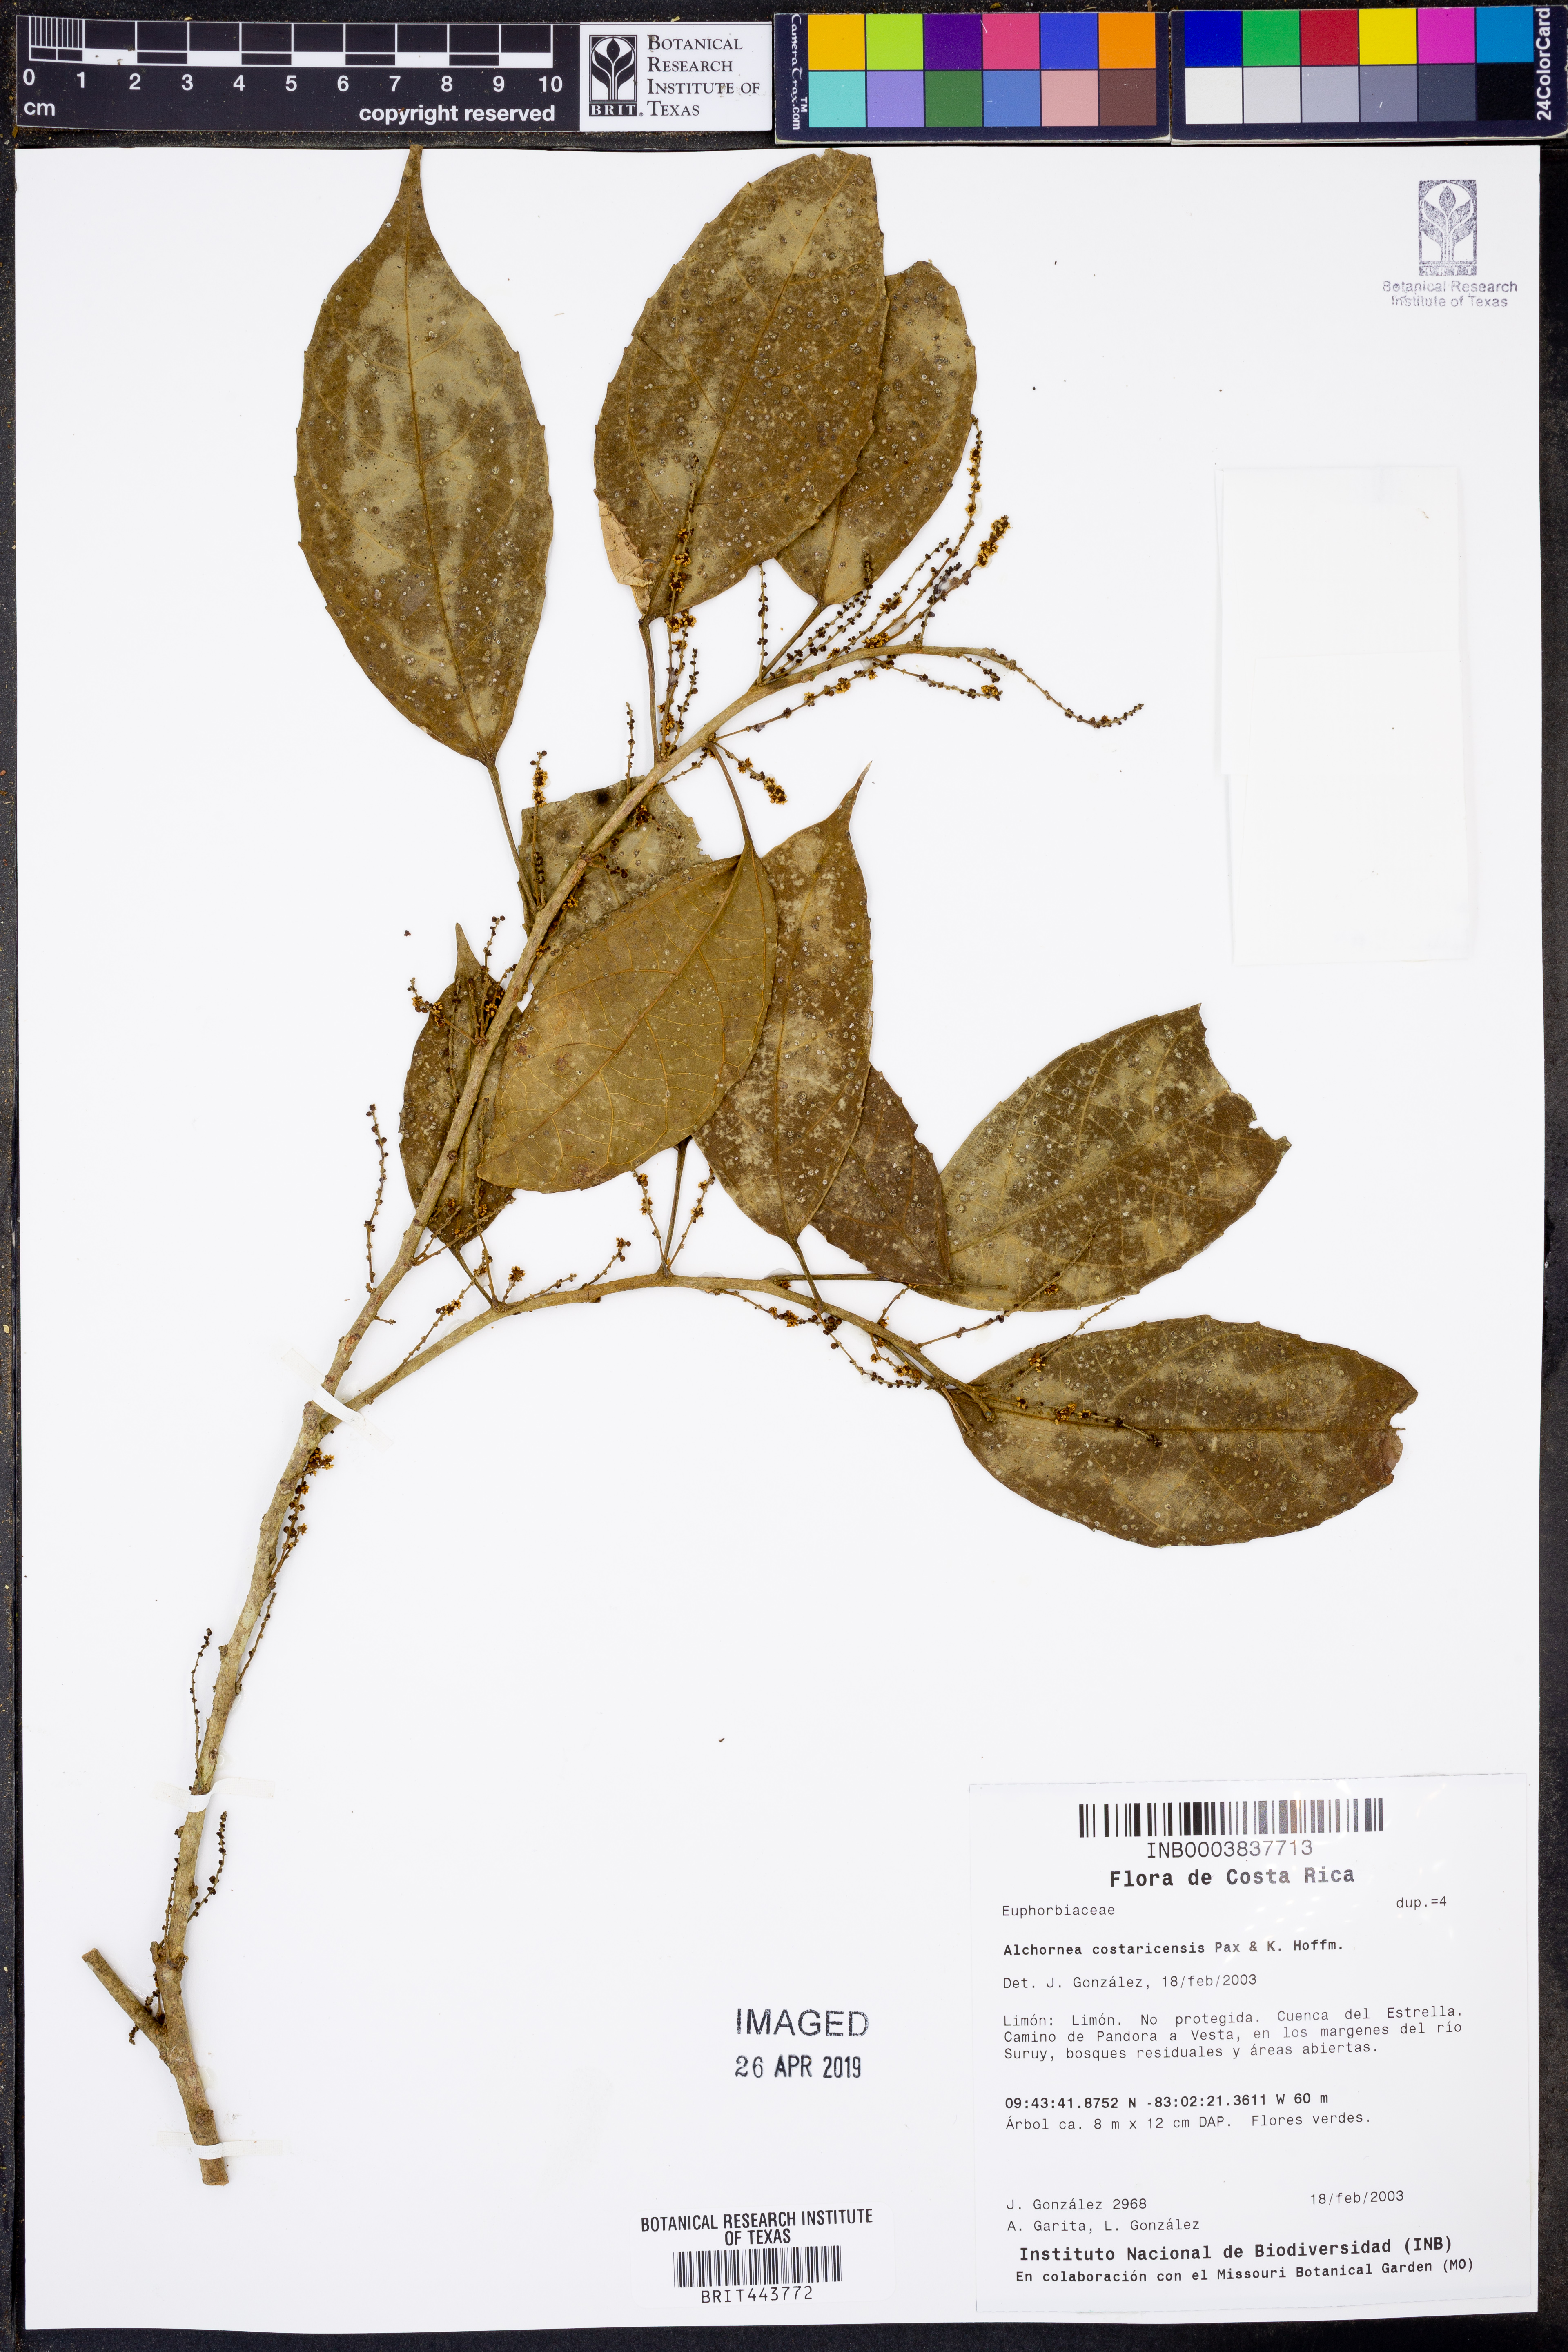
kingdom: Plantae
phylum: Tracheophyta
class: Magnoliopsida
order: Malpighiales
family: Euphorbiaceae
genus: Alchornea
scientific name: Alchornea costaricensis
